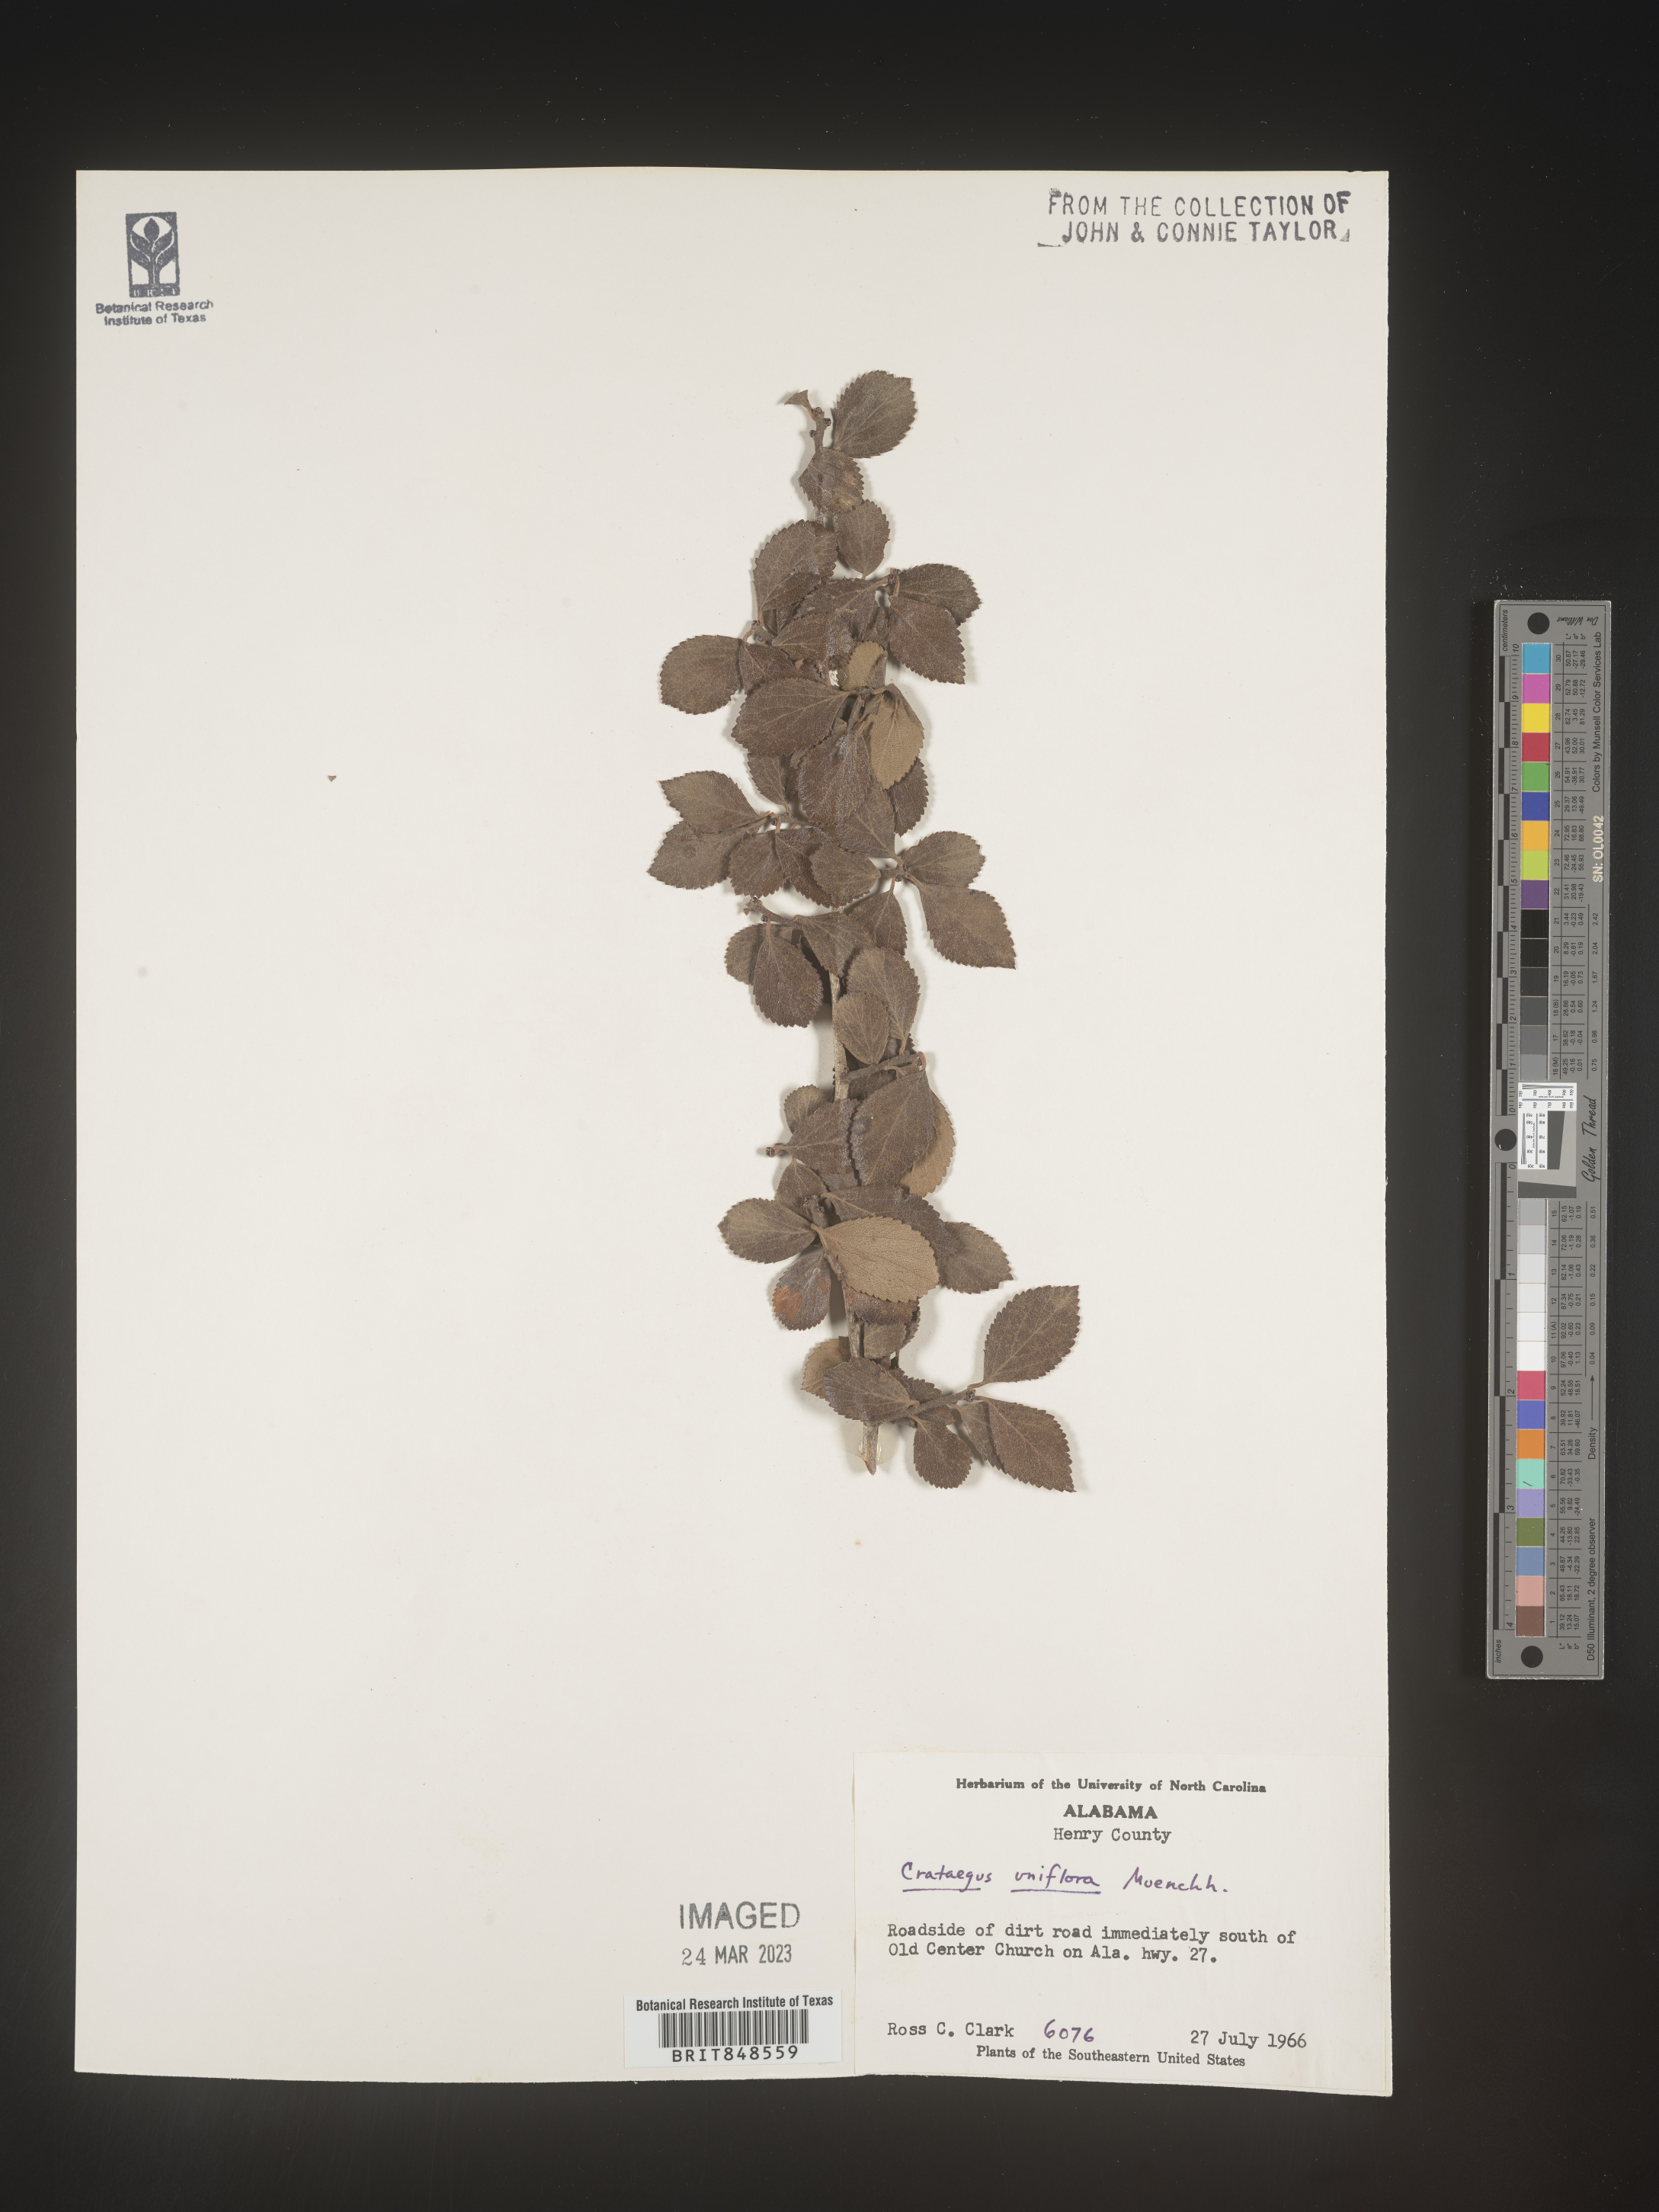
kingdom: Plantae
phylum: Tracheophyta
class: Magnoliopsida
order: Rosales
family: Rosaceae
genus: Crataegus
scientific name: Crataegus uniflora
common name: One-flower hawthorn
